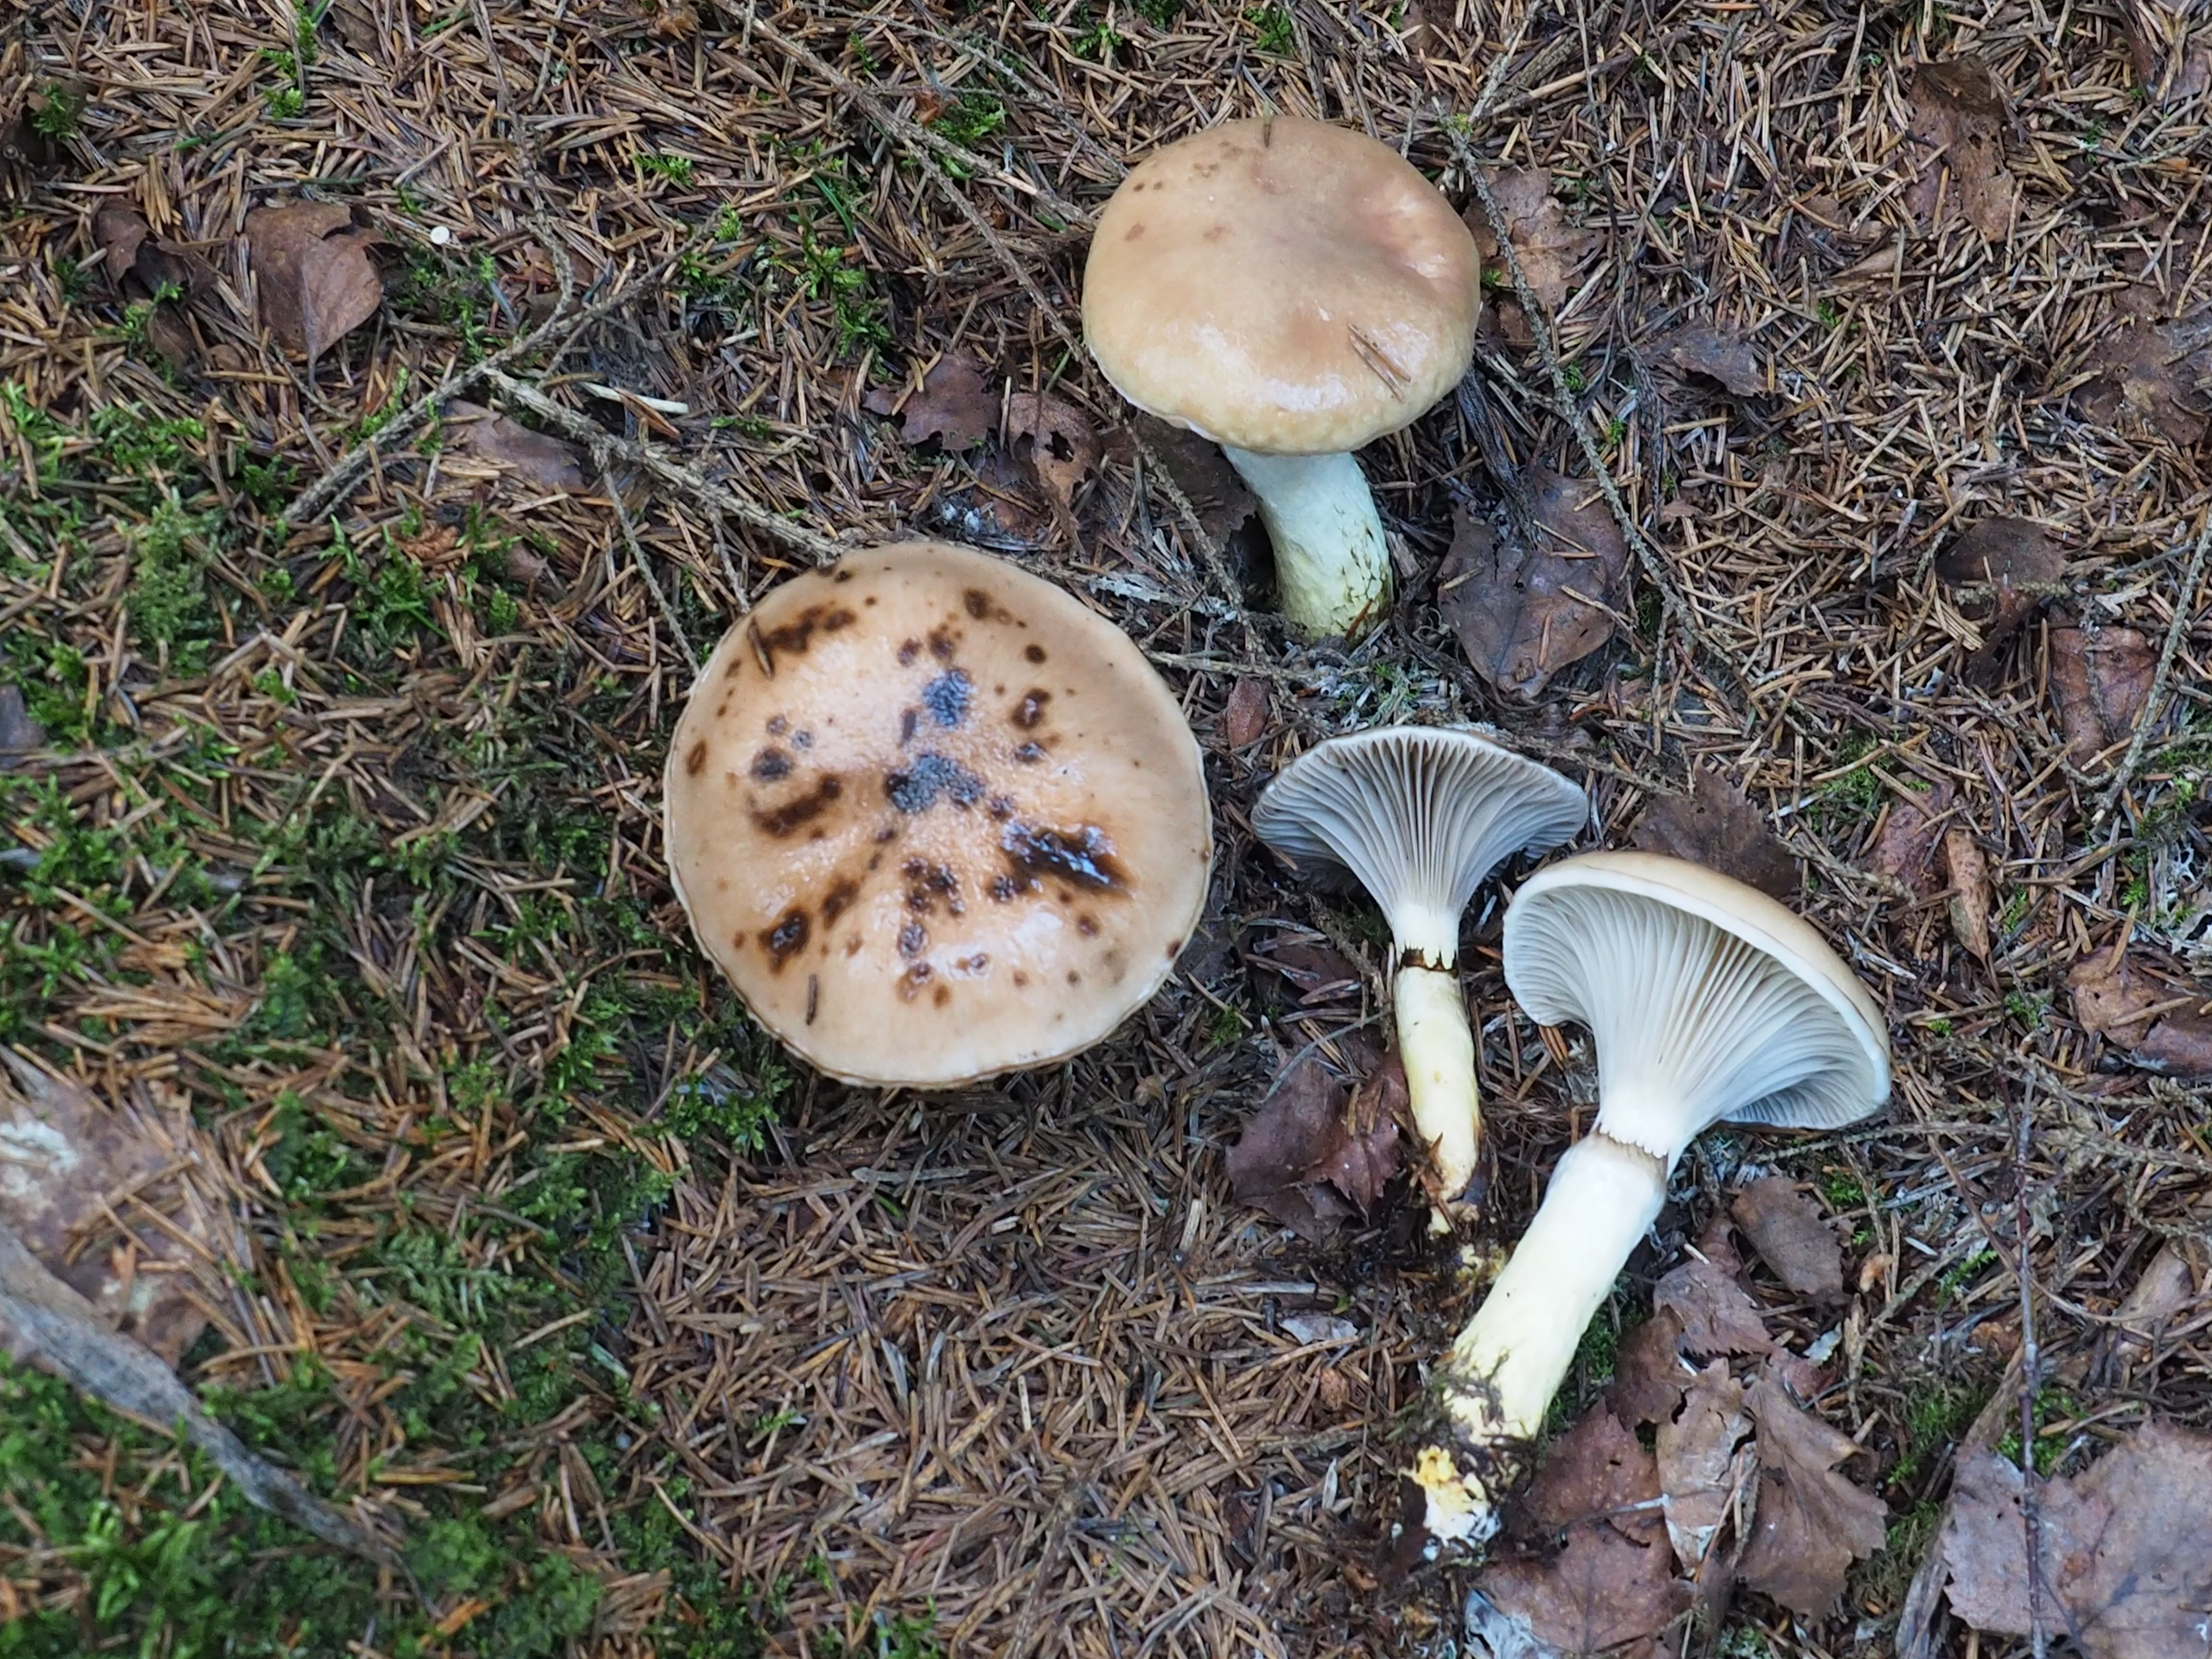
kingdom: Fungi
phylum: Basidiomycota
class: Agaricomycetes
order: Boletales
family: Gomphidiaceae
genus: Gomphidius
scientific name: Gomphidius glutinosus
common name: Slimy spike
